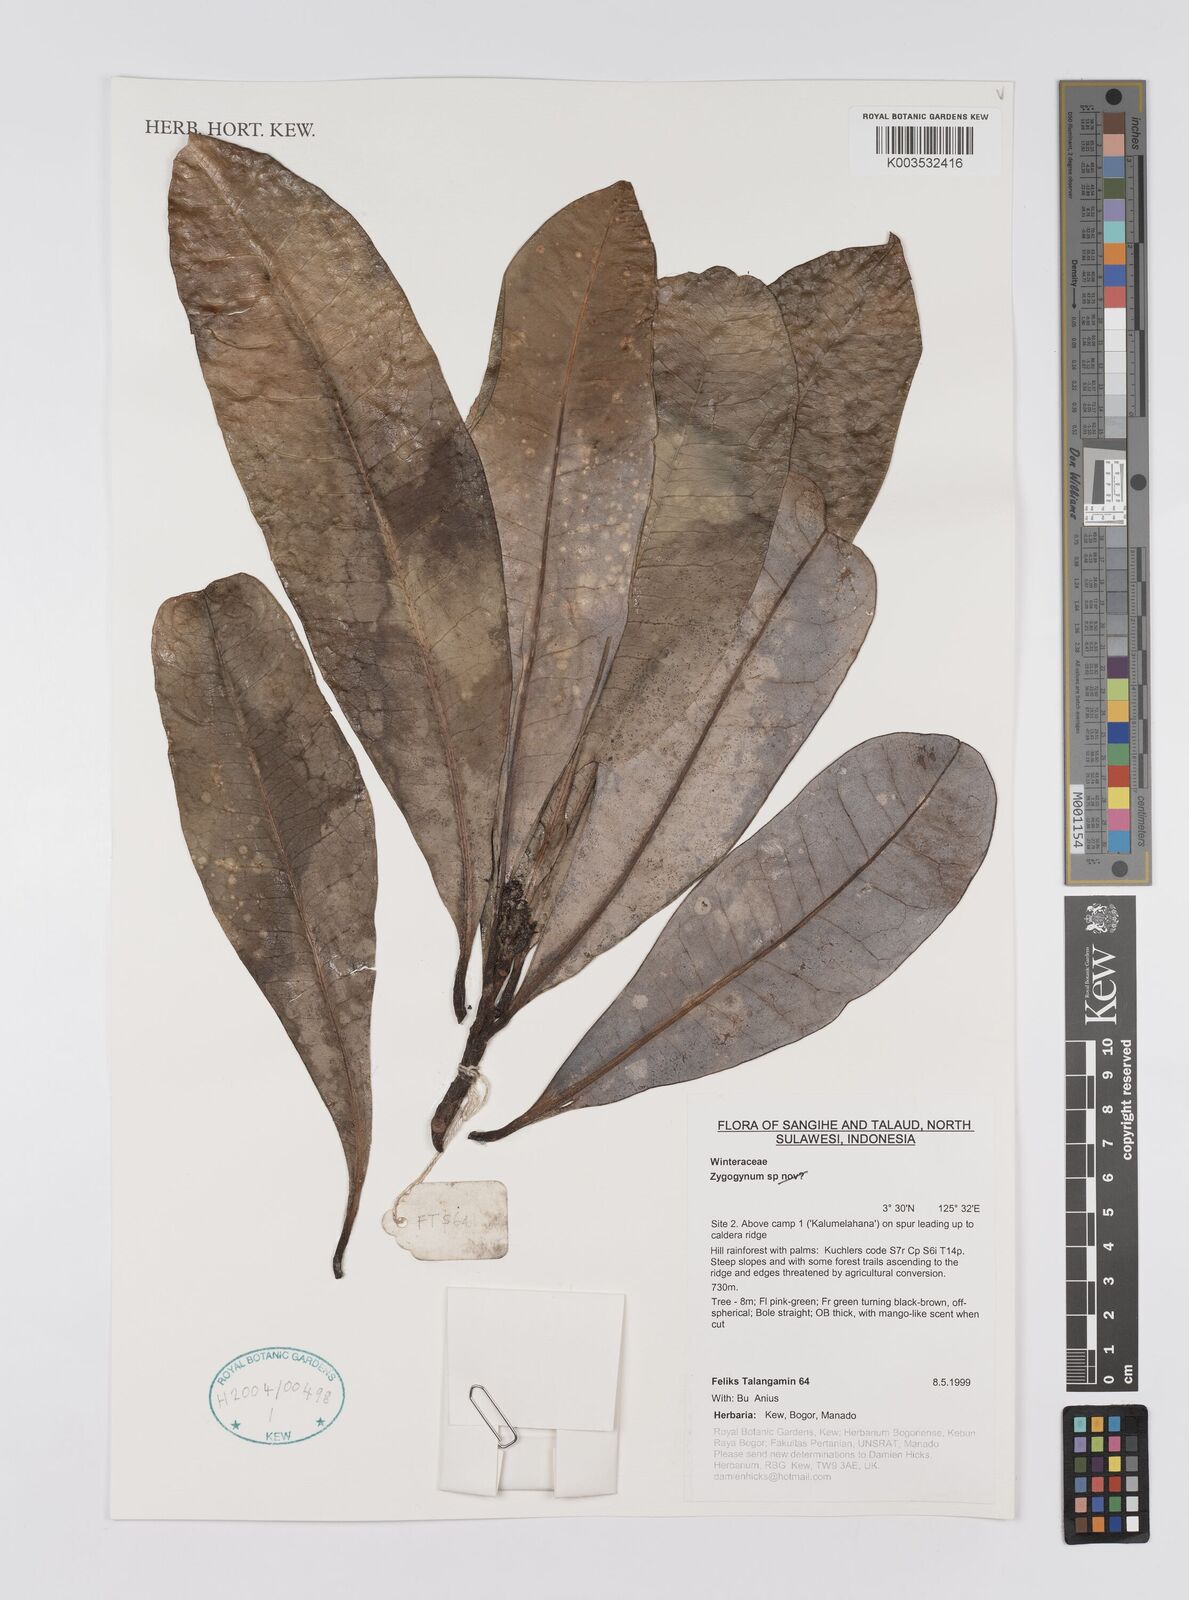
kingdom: Plantae
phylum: Tracheophyta
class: Magnoliopsida
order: Canellales
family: Winteraceae
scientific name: Winteraceae
